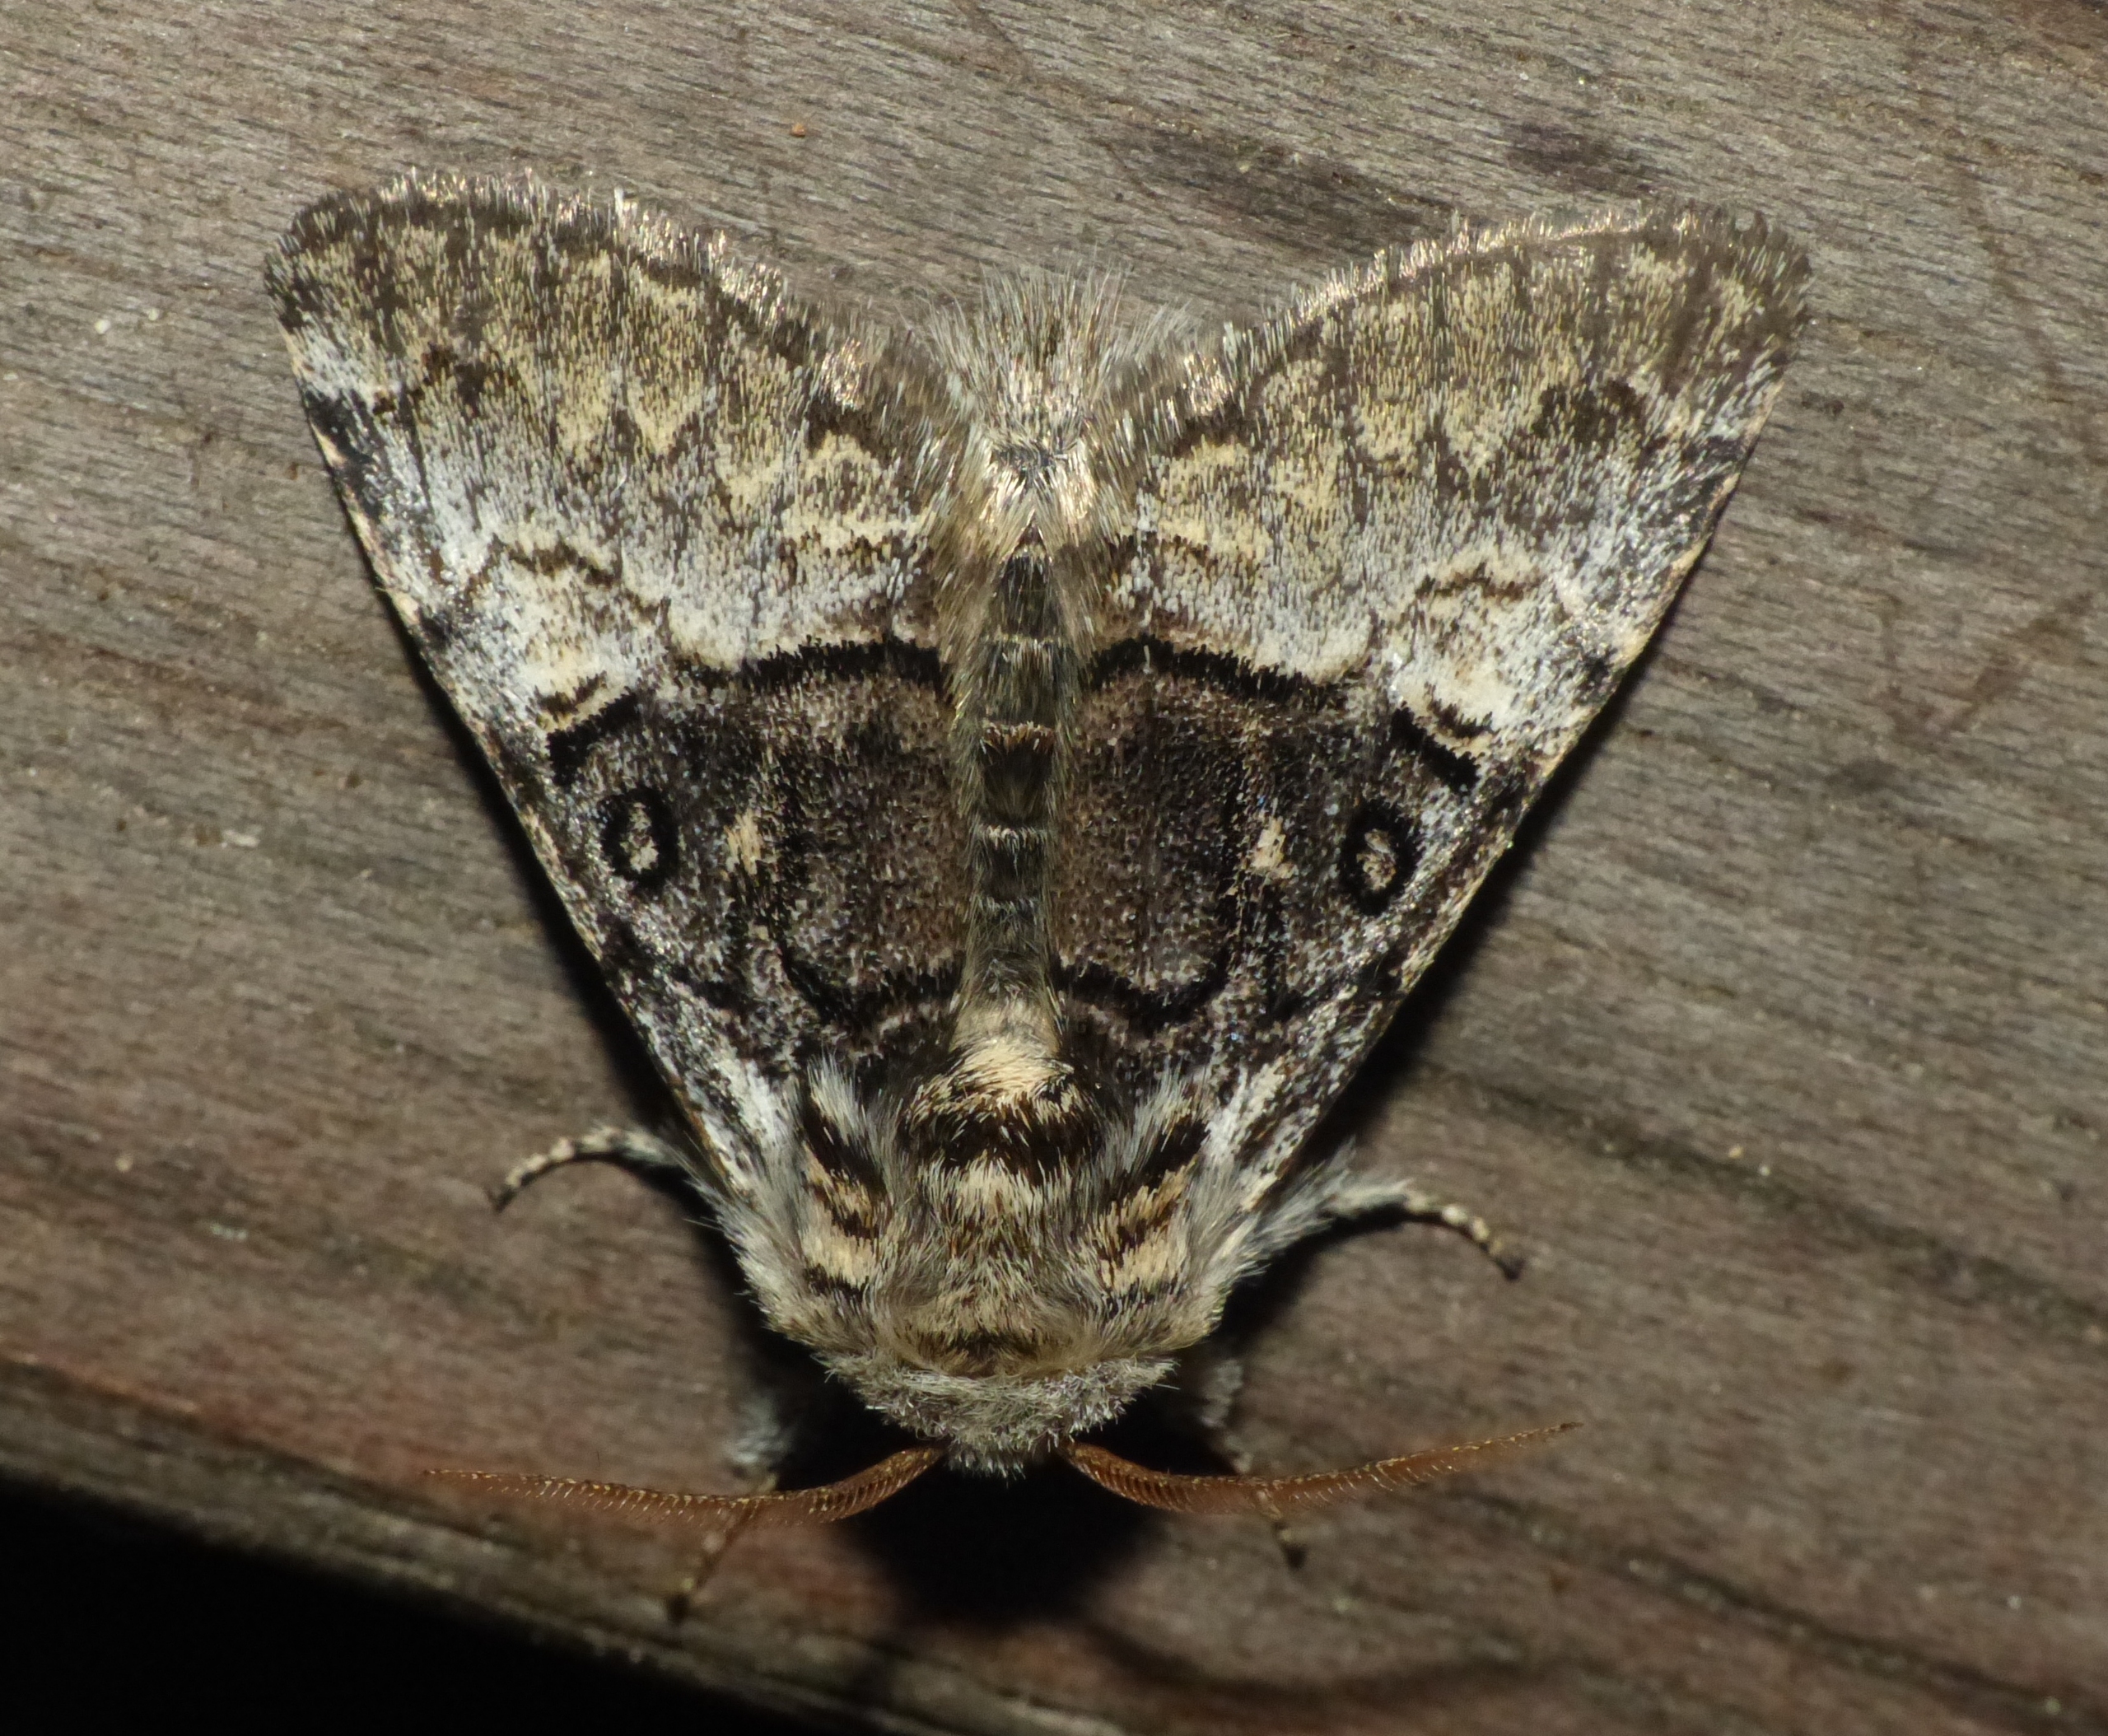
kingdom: Animalia
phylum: Arthropoda
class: Insecta
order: Lepidoptera
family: Noctuidae
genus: Colocasia
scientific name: Colocasia coryli
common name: Penselugle
